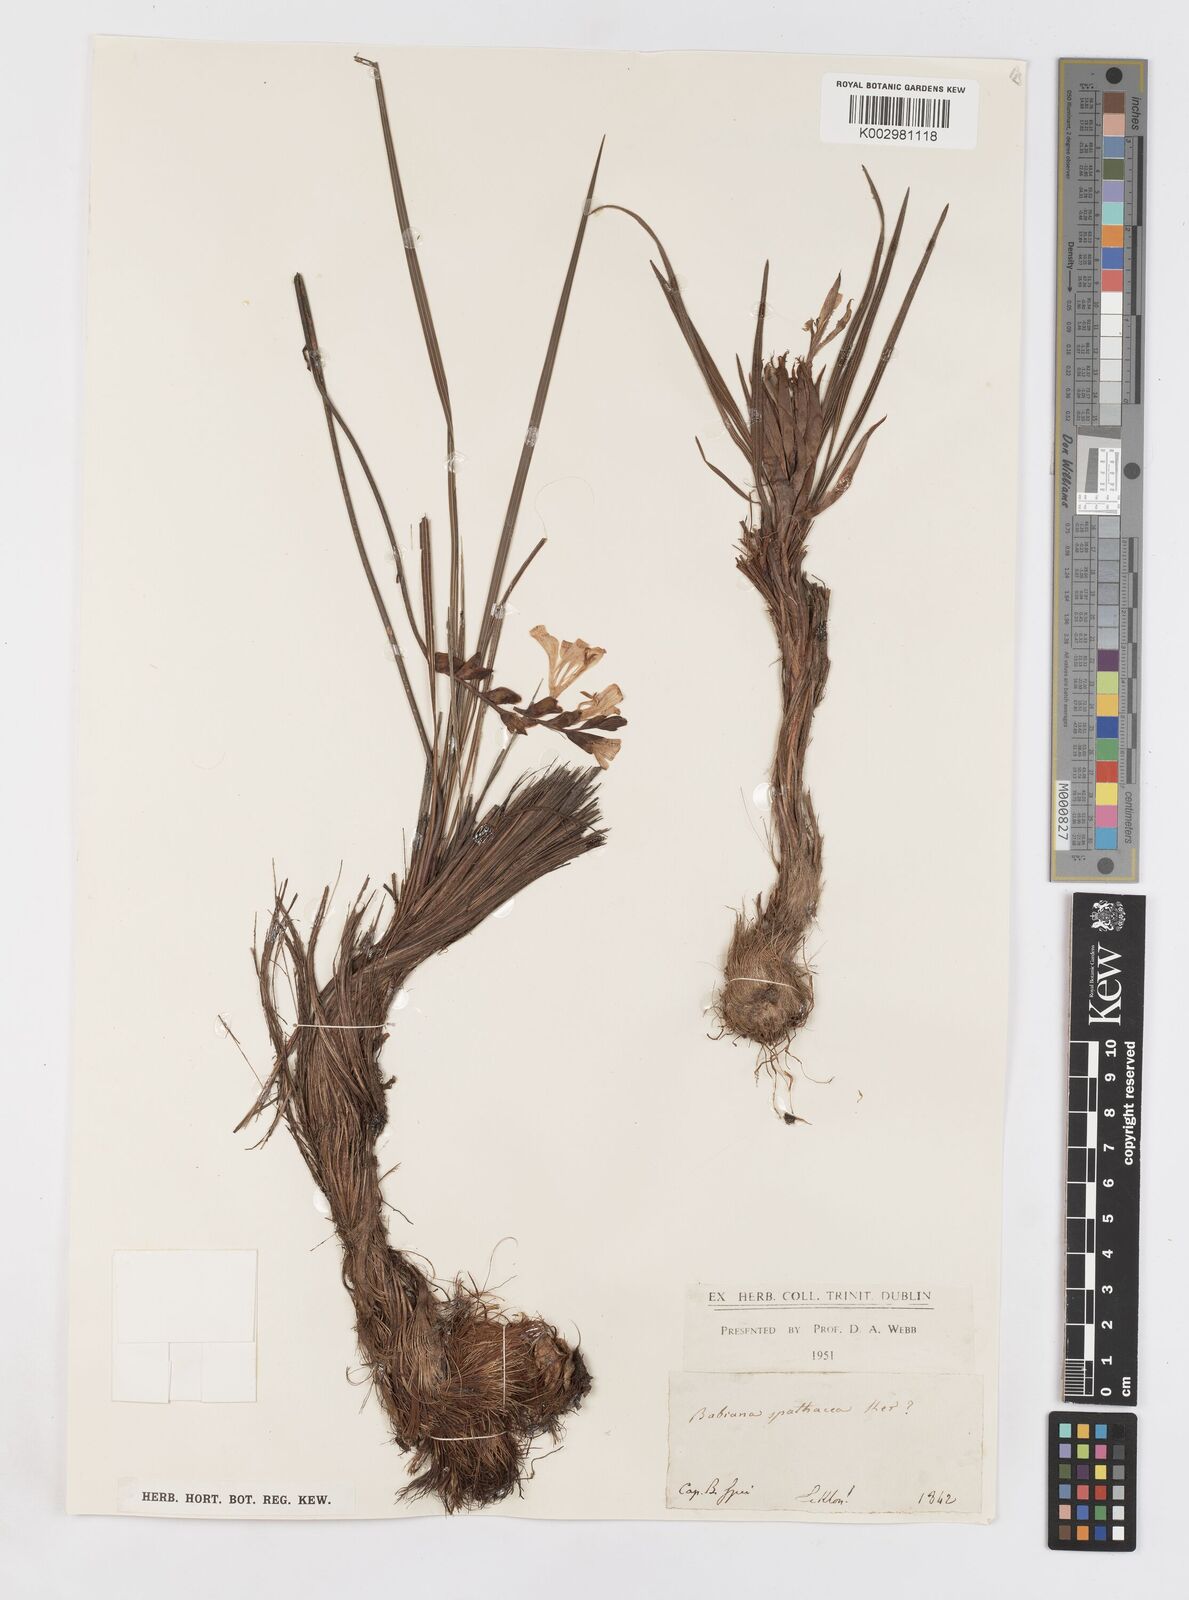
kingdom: Plantae
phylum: Tracheophyta
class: Liliopsida
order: Asparagales
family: Iridaceae
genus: Babiana
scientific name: Babiana spathacea
